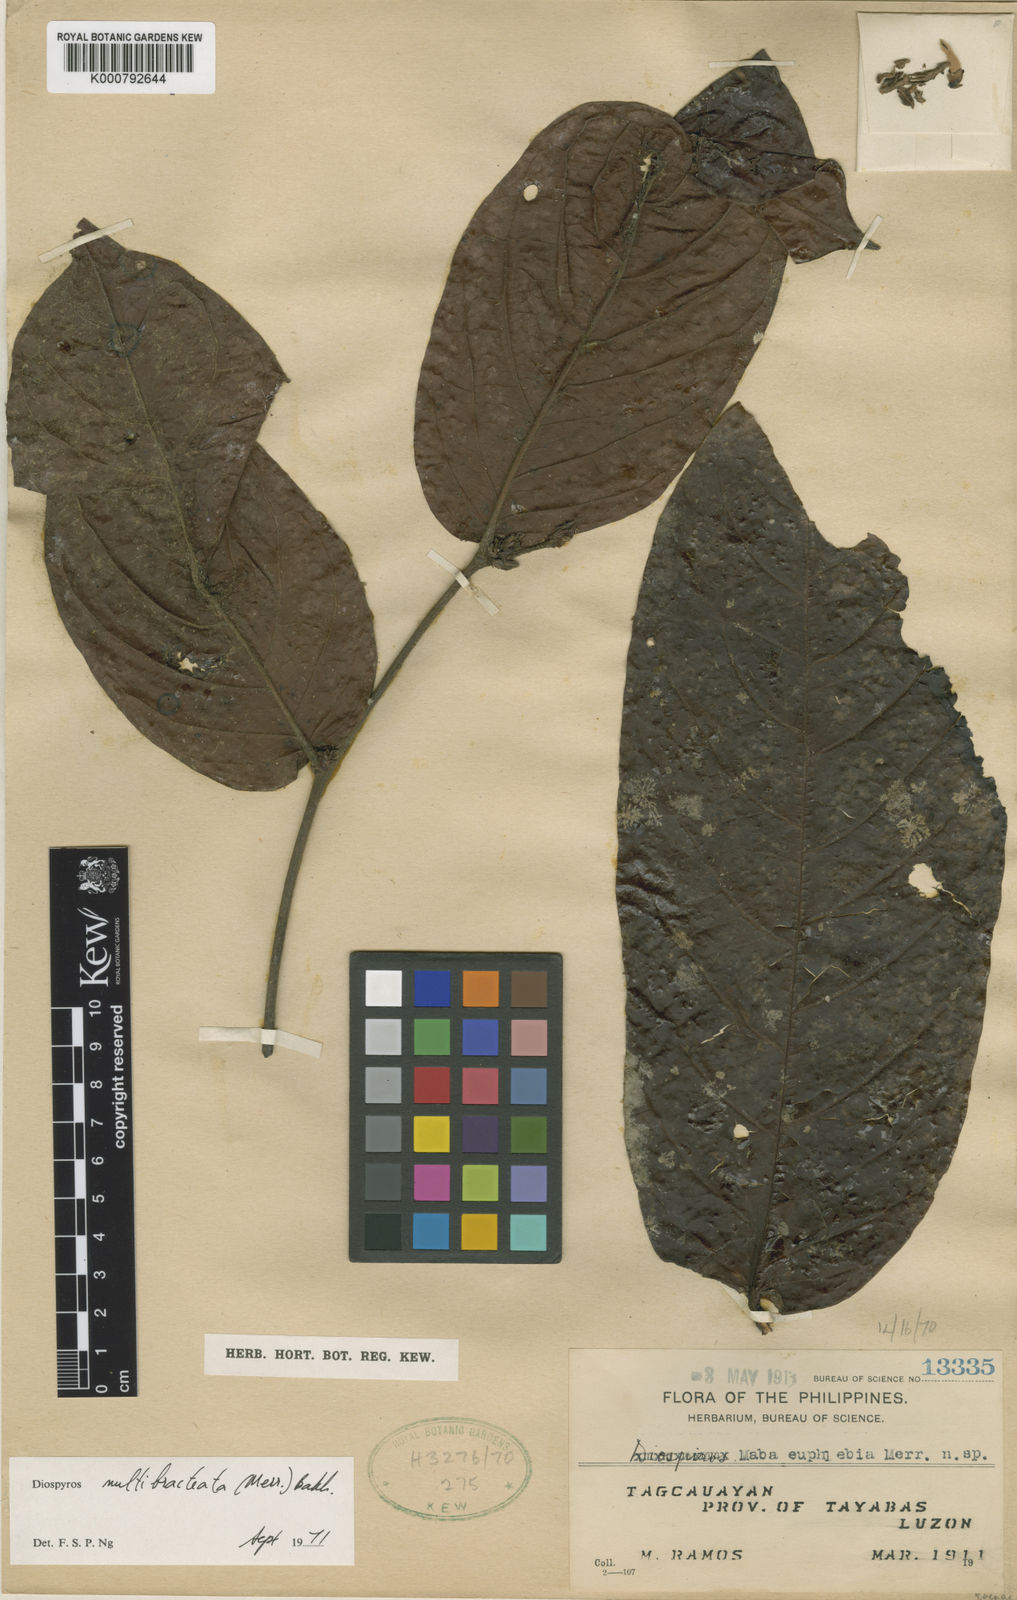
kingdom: Plantae
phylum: Tracheophyta
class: Magnoliopsida
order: Ericales
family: Ebenaceae
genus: Diospyros
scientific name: Diospyros multibracteata
